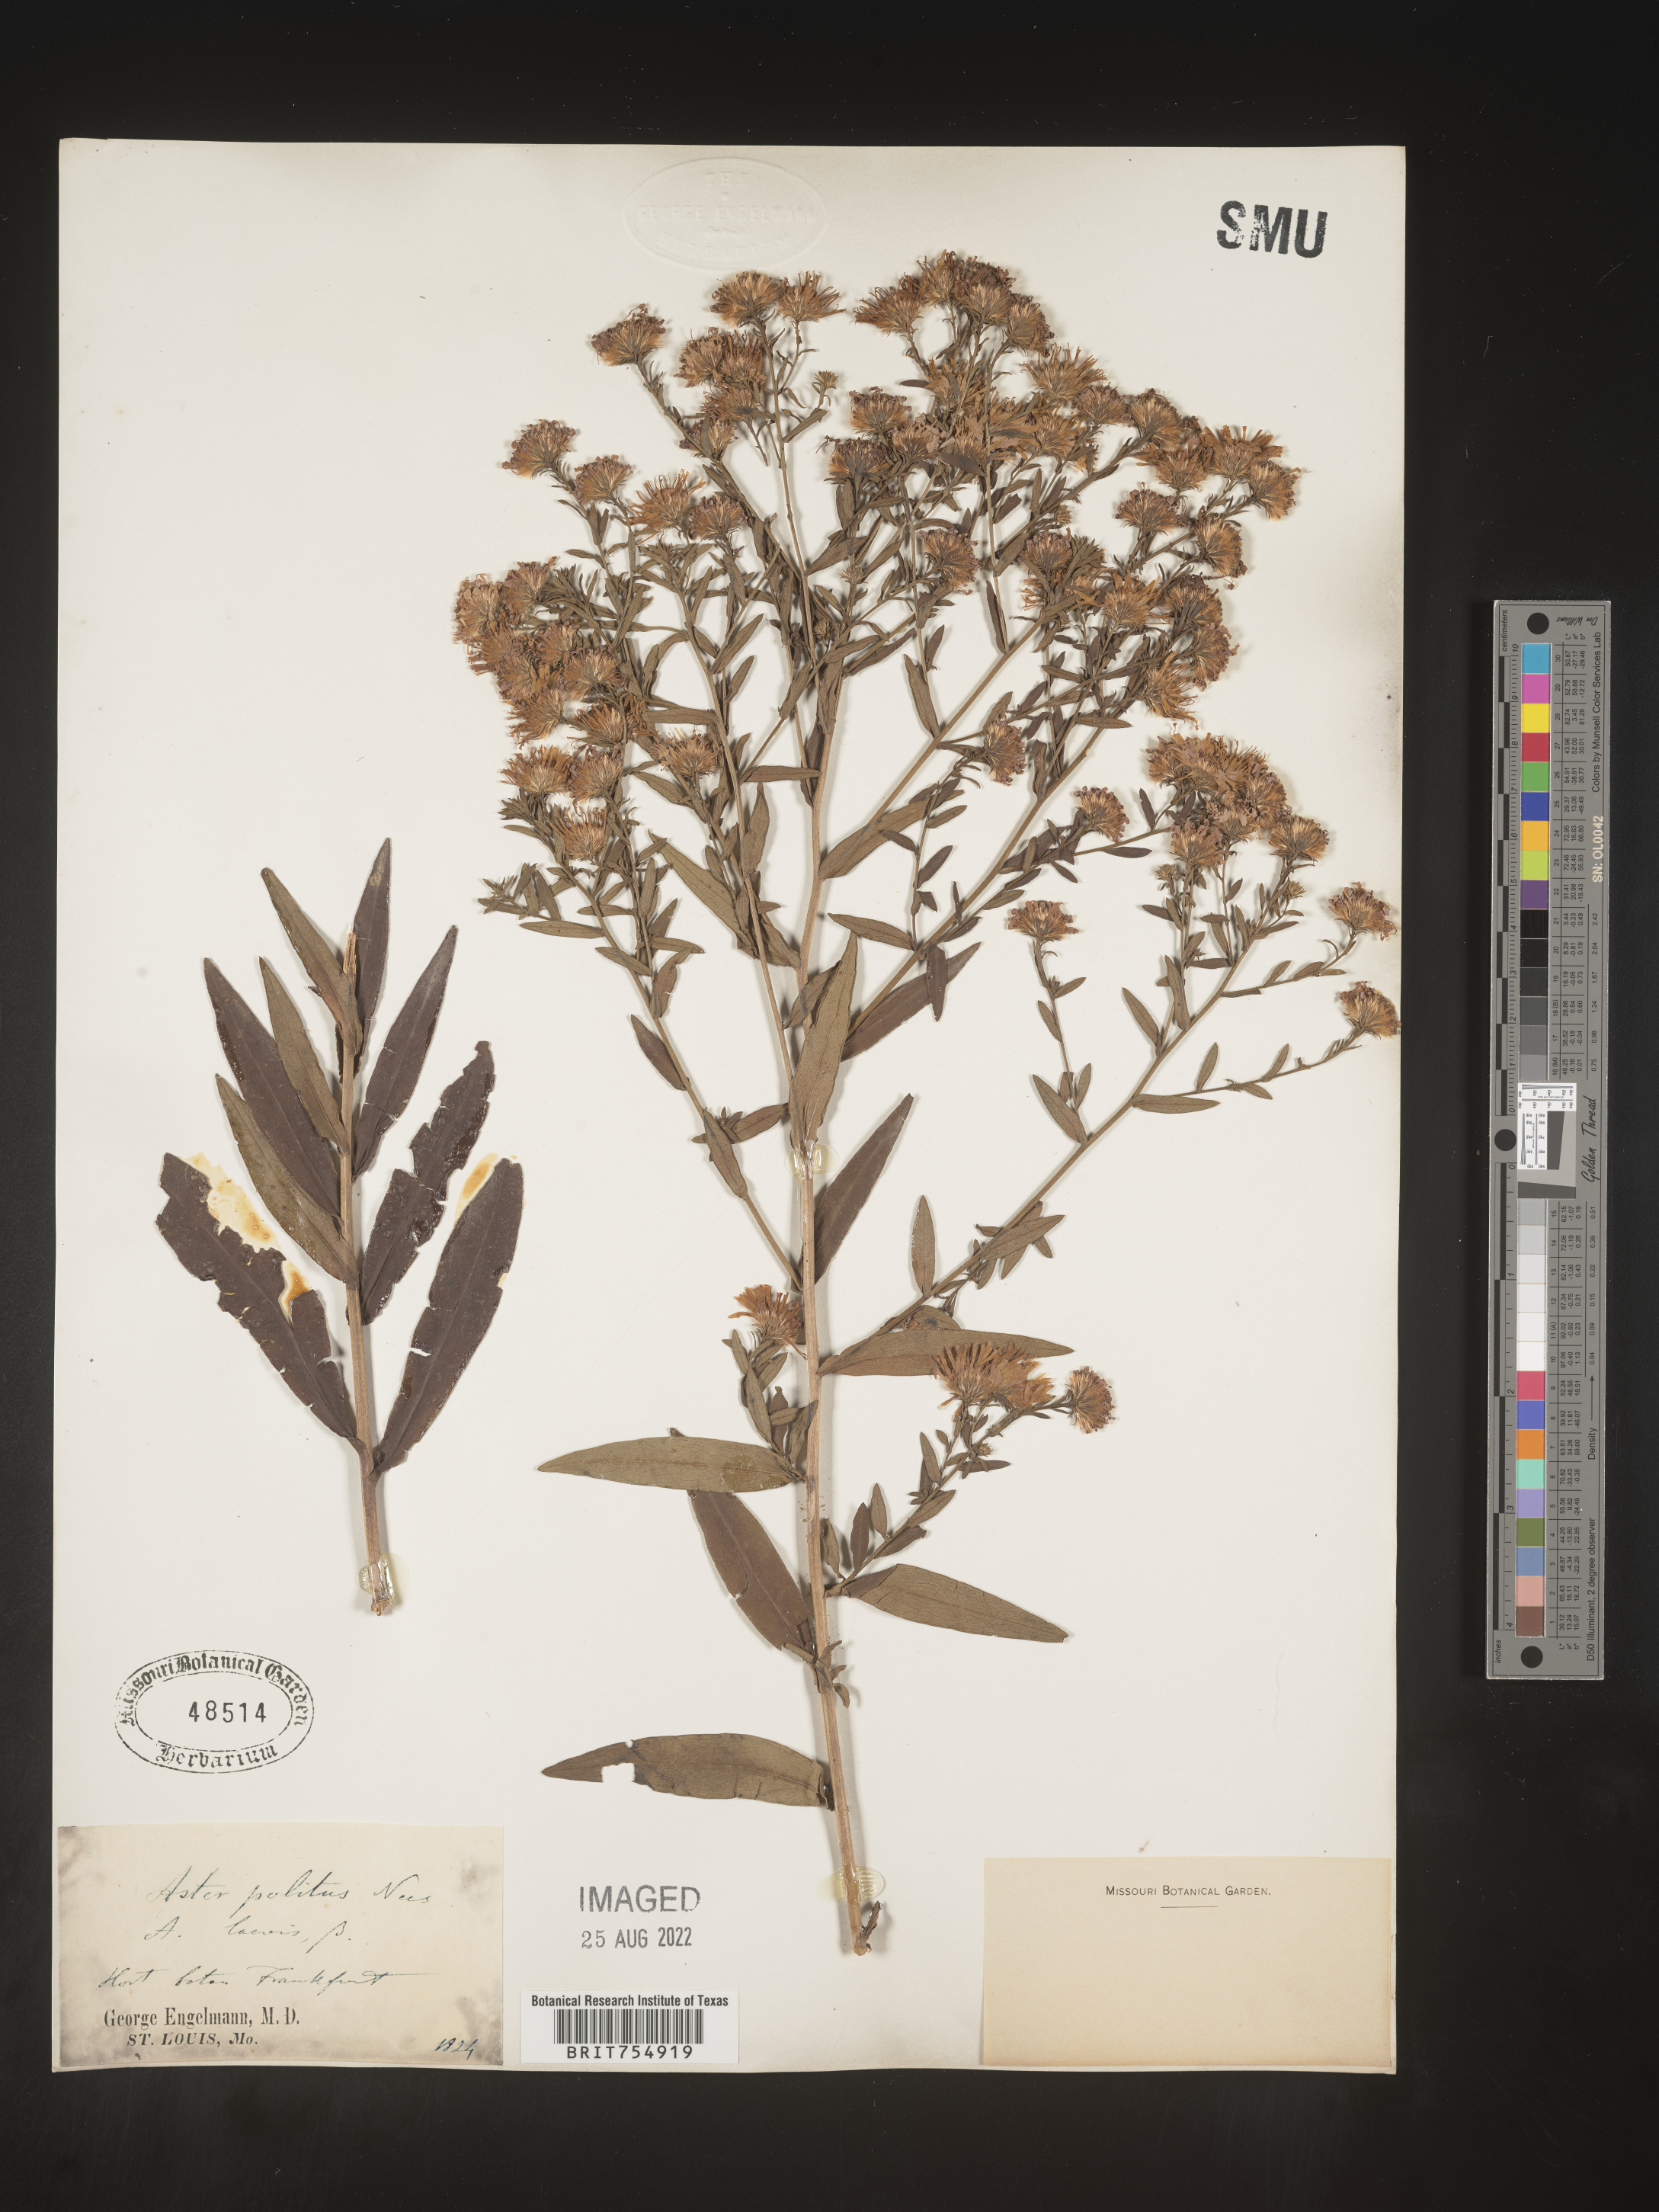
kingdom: Plantae
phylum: Tracheophyta
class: Magnoliopsida
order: Asterales
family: Asteraceae
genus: Symphyotrichum
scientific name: Symphyotrichum
